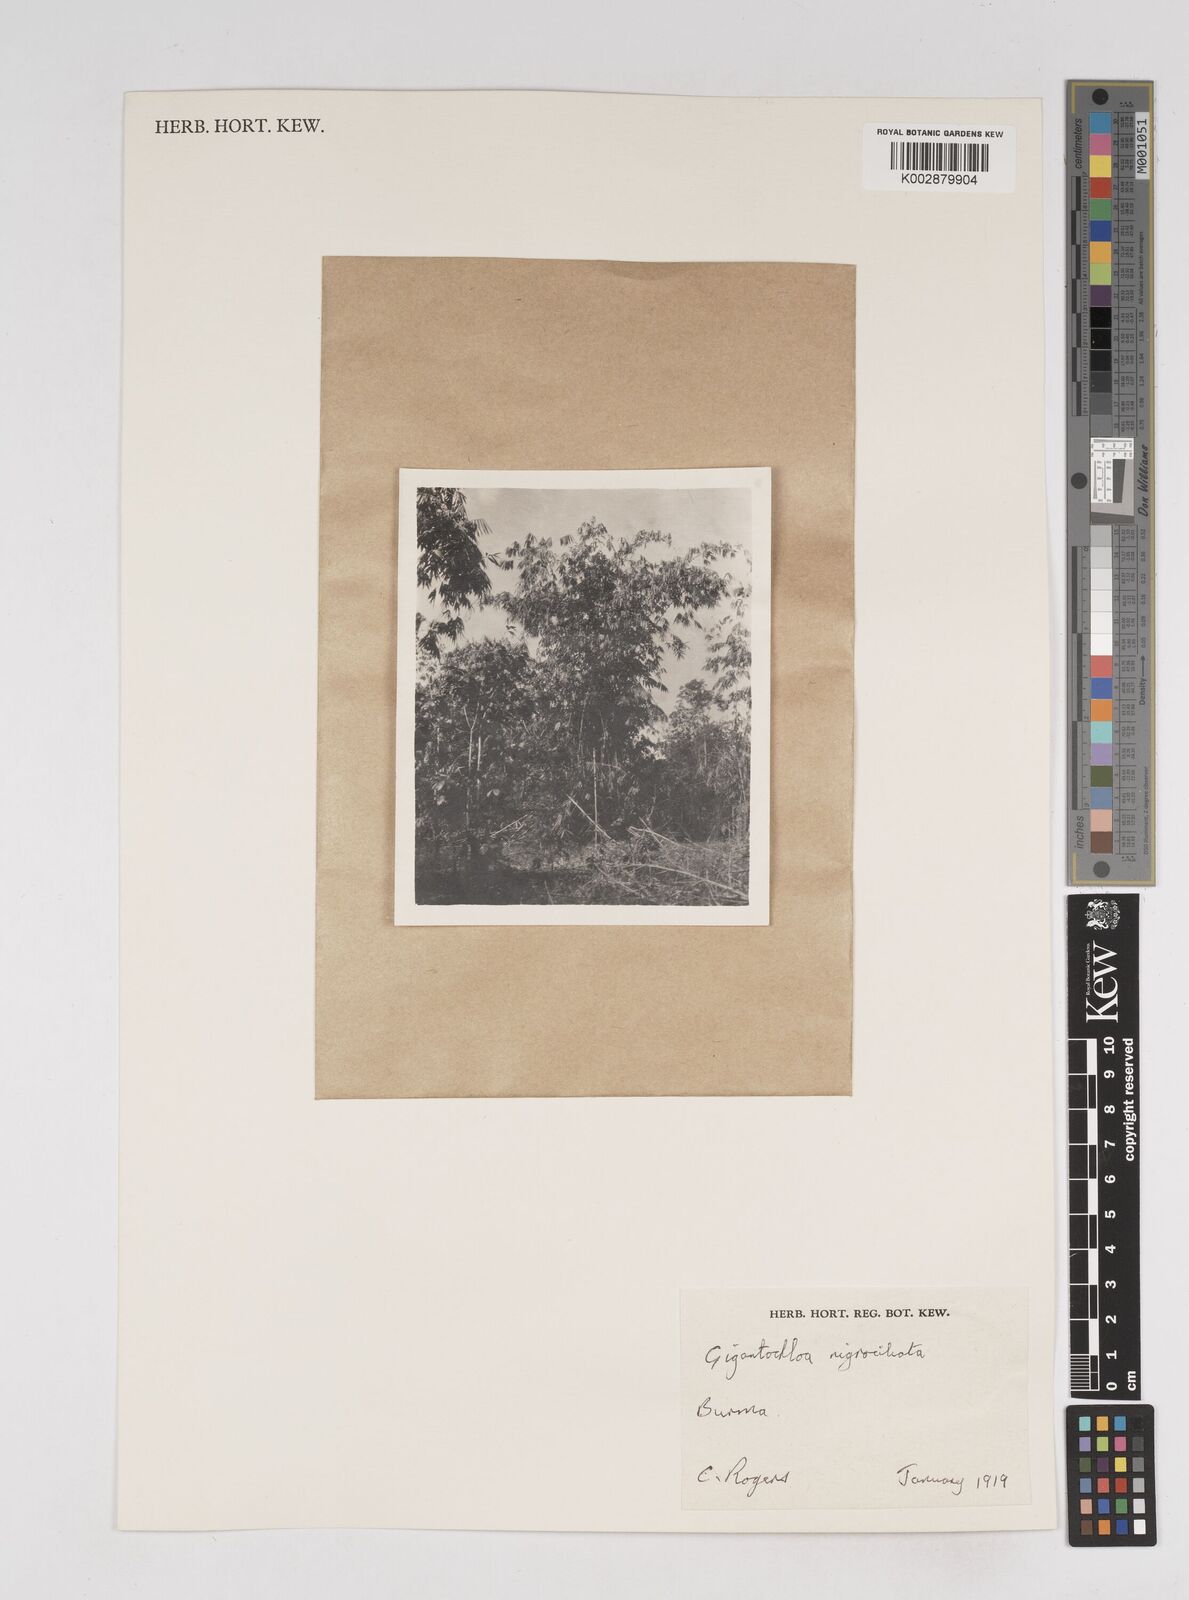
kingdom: Plantae
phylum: Tracheophyta
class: Liliopsida
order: Poales
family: Poaceae
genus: Gigantochloa
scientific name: Gigantochloa nigrociliata
